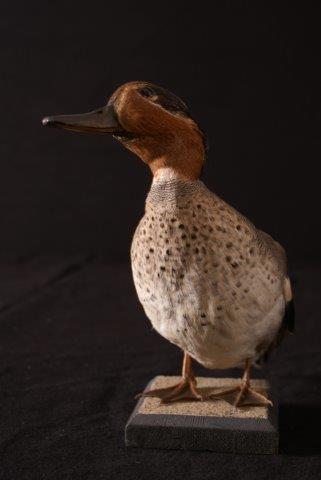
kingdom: Animalia
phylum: Chordata
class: Aves
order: Anseriformes
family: Anatidae
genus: Anas
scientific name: Anas crecca
